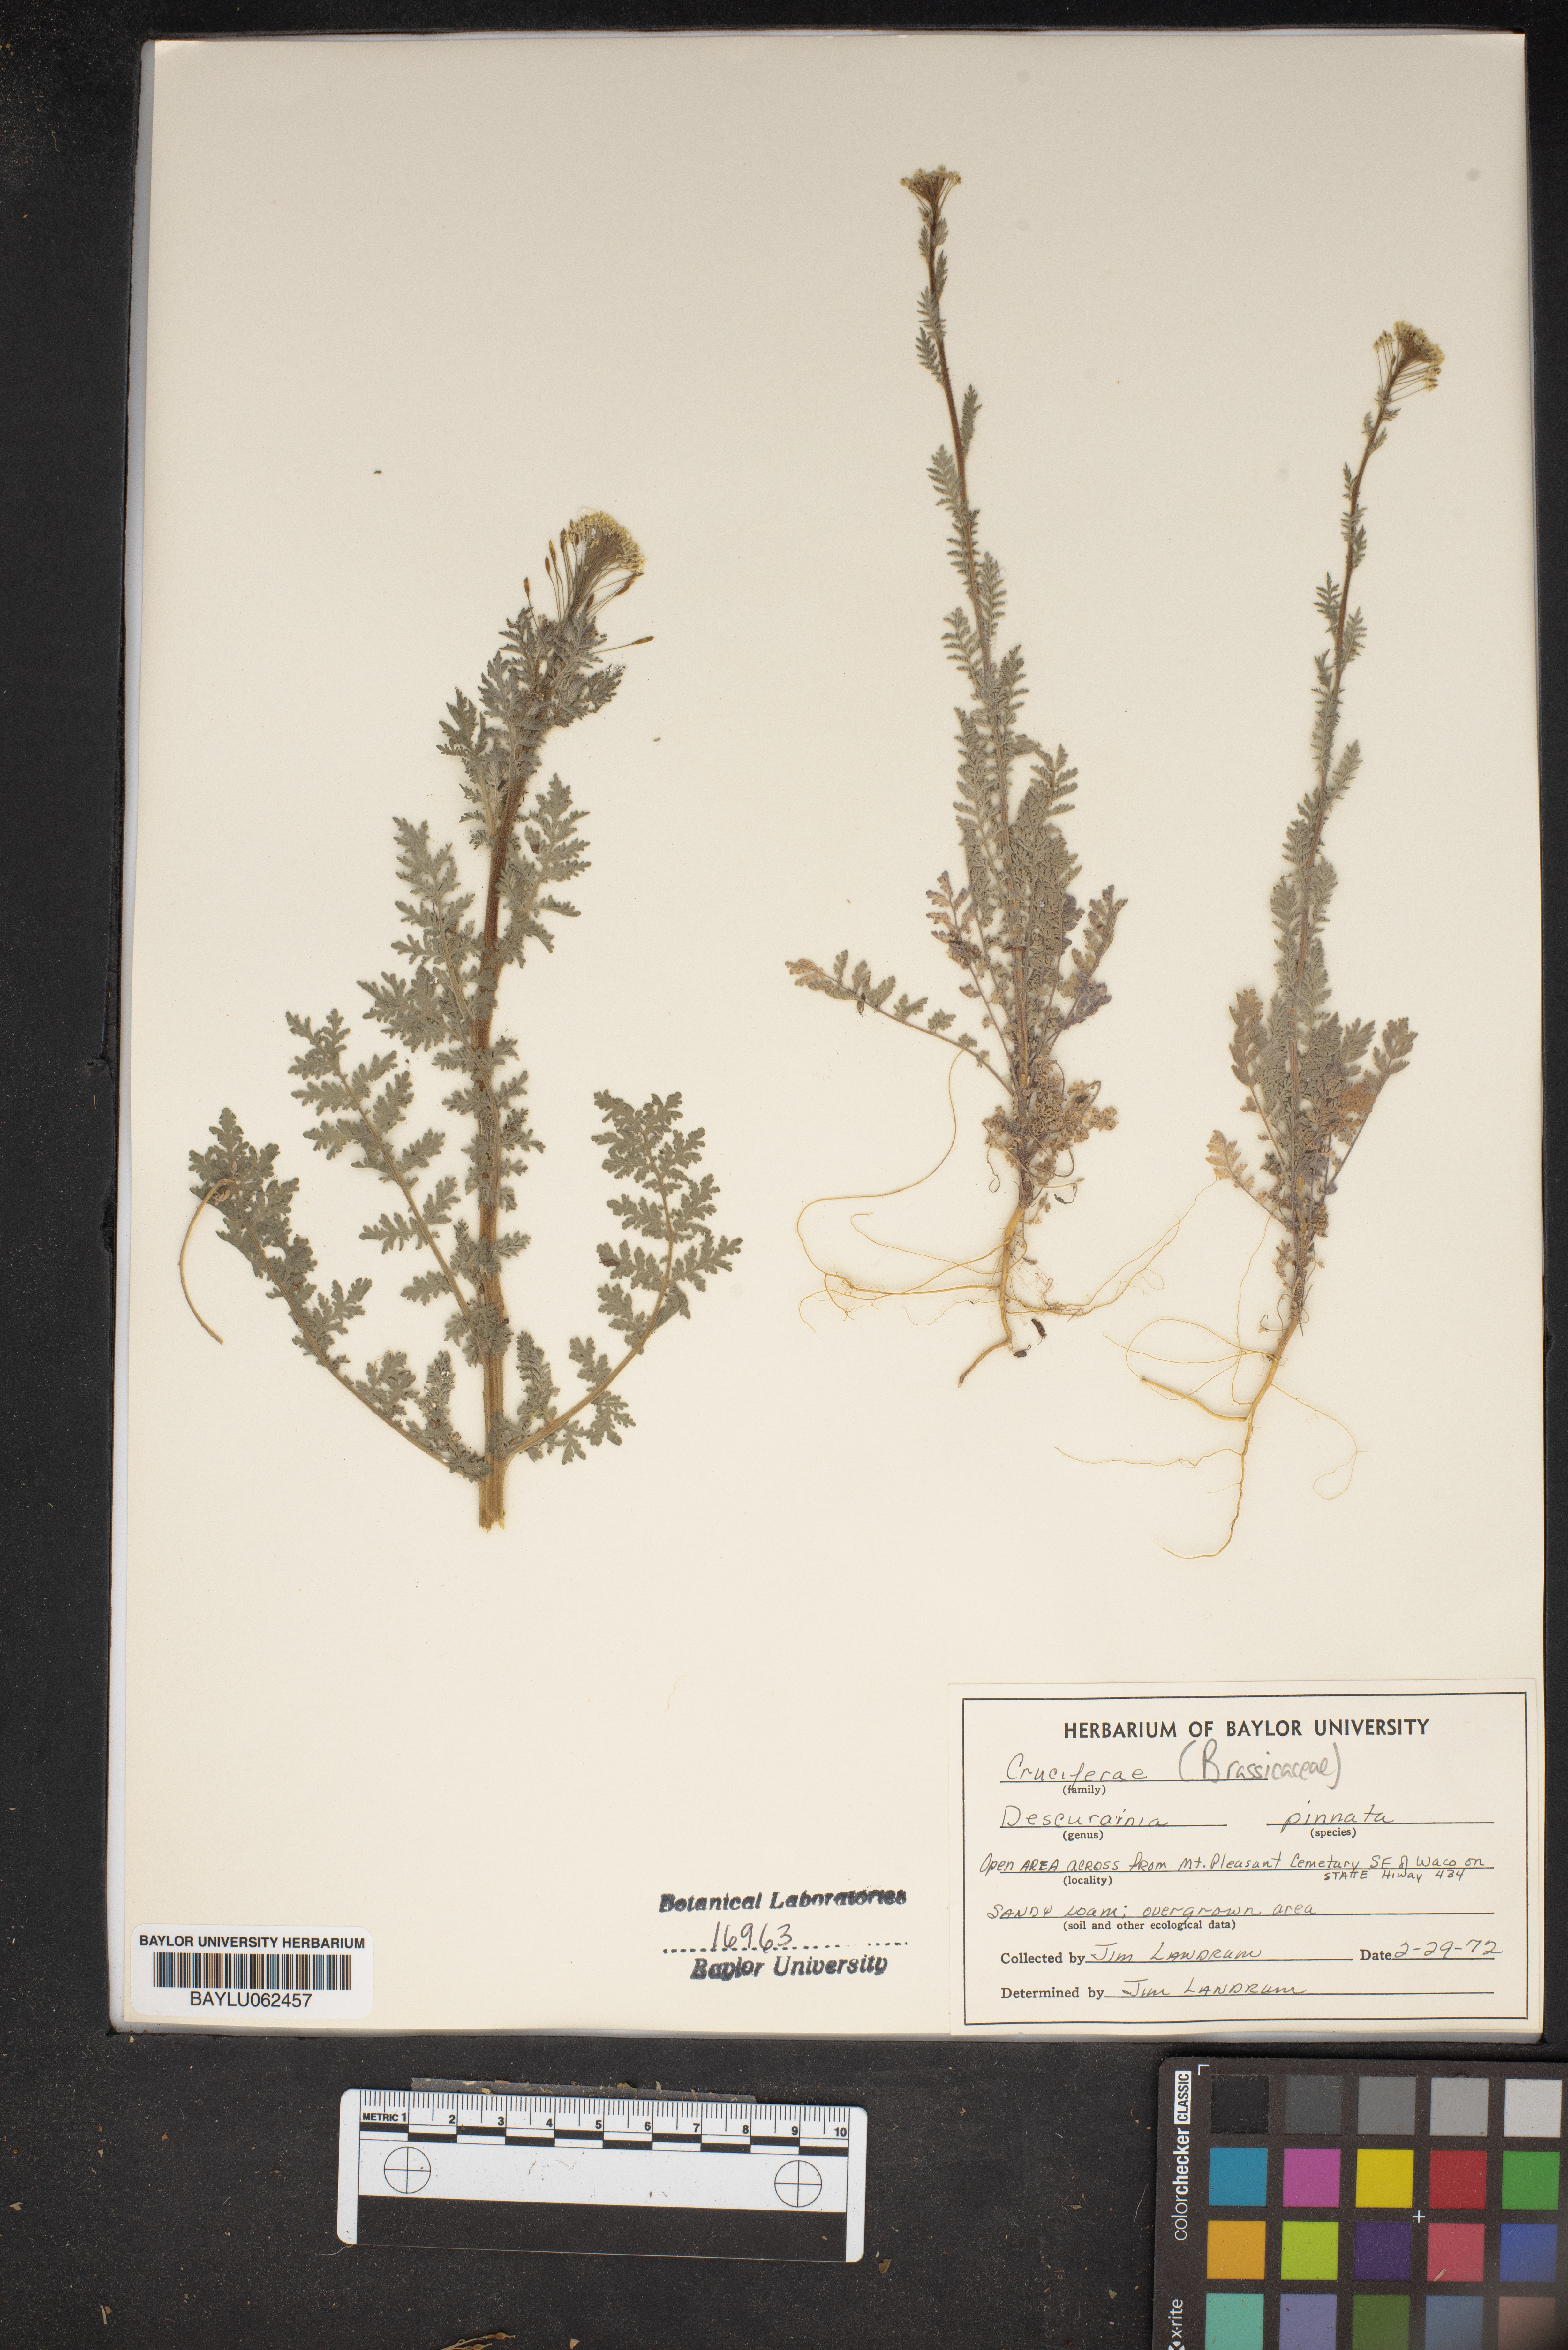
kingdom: Plantae
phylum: Tracheophyta
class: Magnoliopsida
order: Brassicales
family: Brassicaceae
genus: Descurainia
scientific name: Descurainia pinnata
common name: Western tansy mustard
